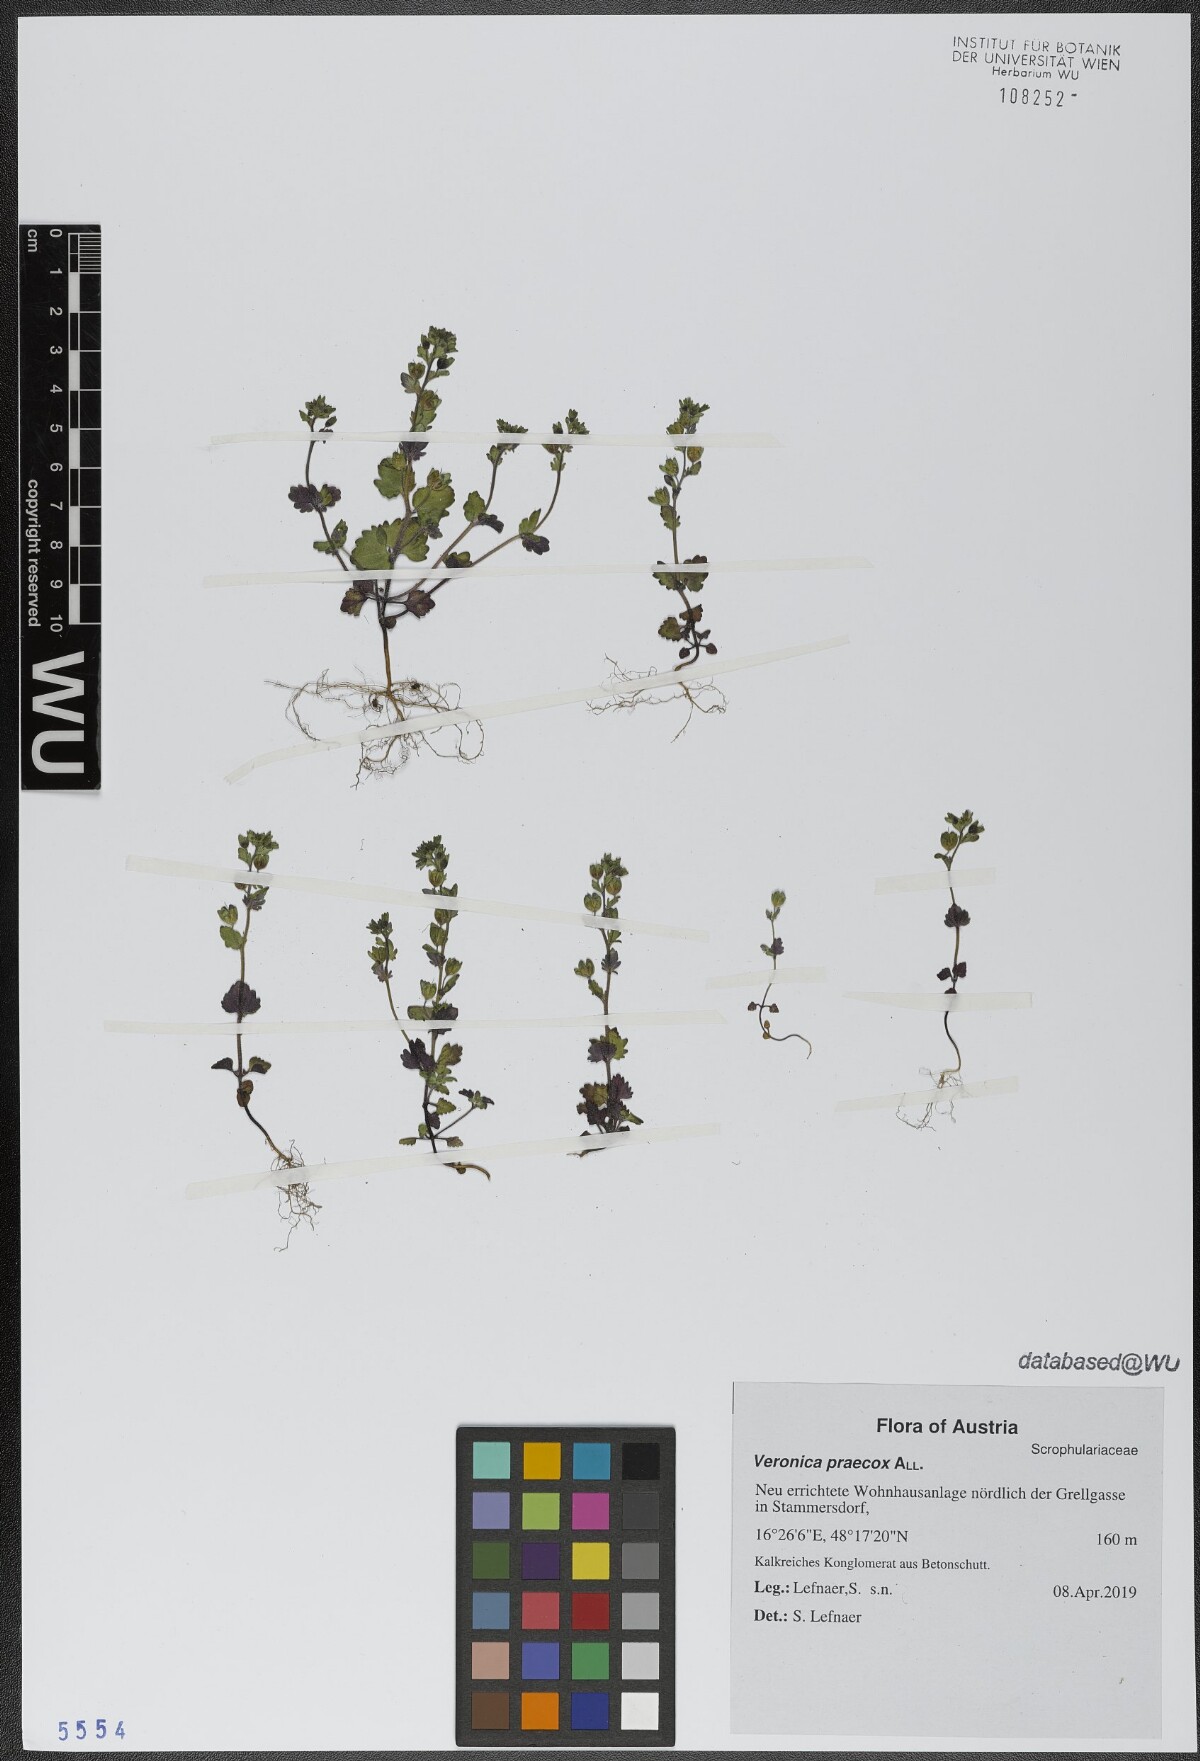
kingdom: Plantae
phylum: Tracheophyta
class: Magnoliopsida
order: Lamiales
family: Plantaginaceae
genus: Veronica
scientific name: Veronica praecox
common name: Breckland speedwell
